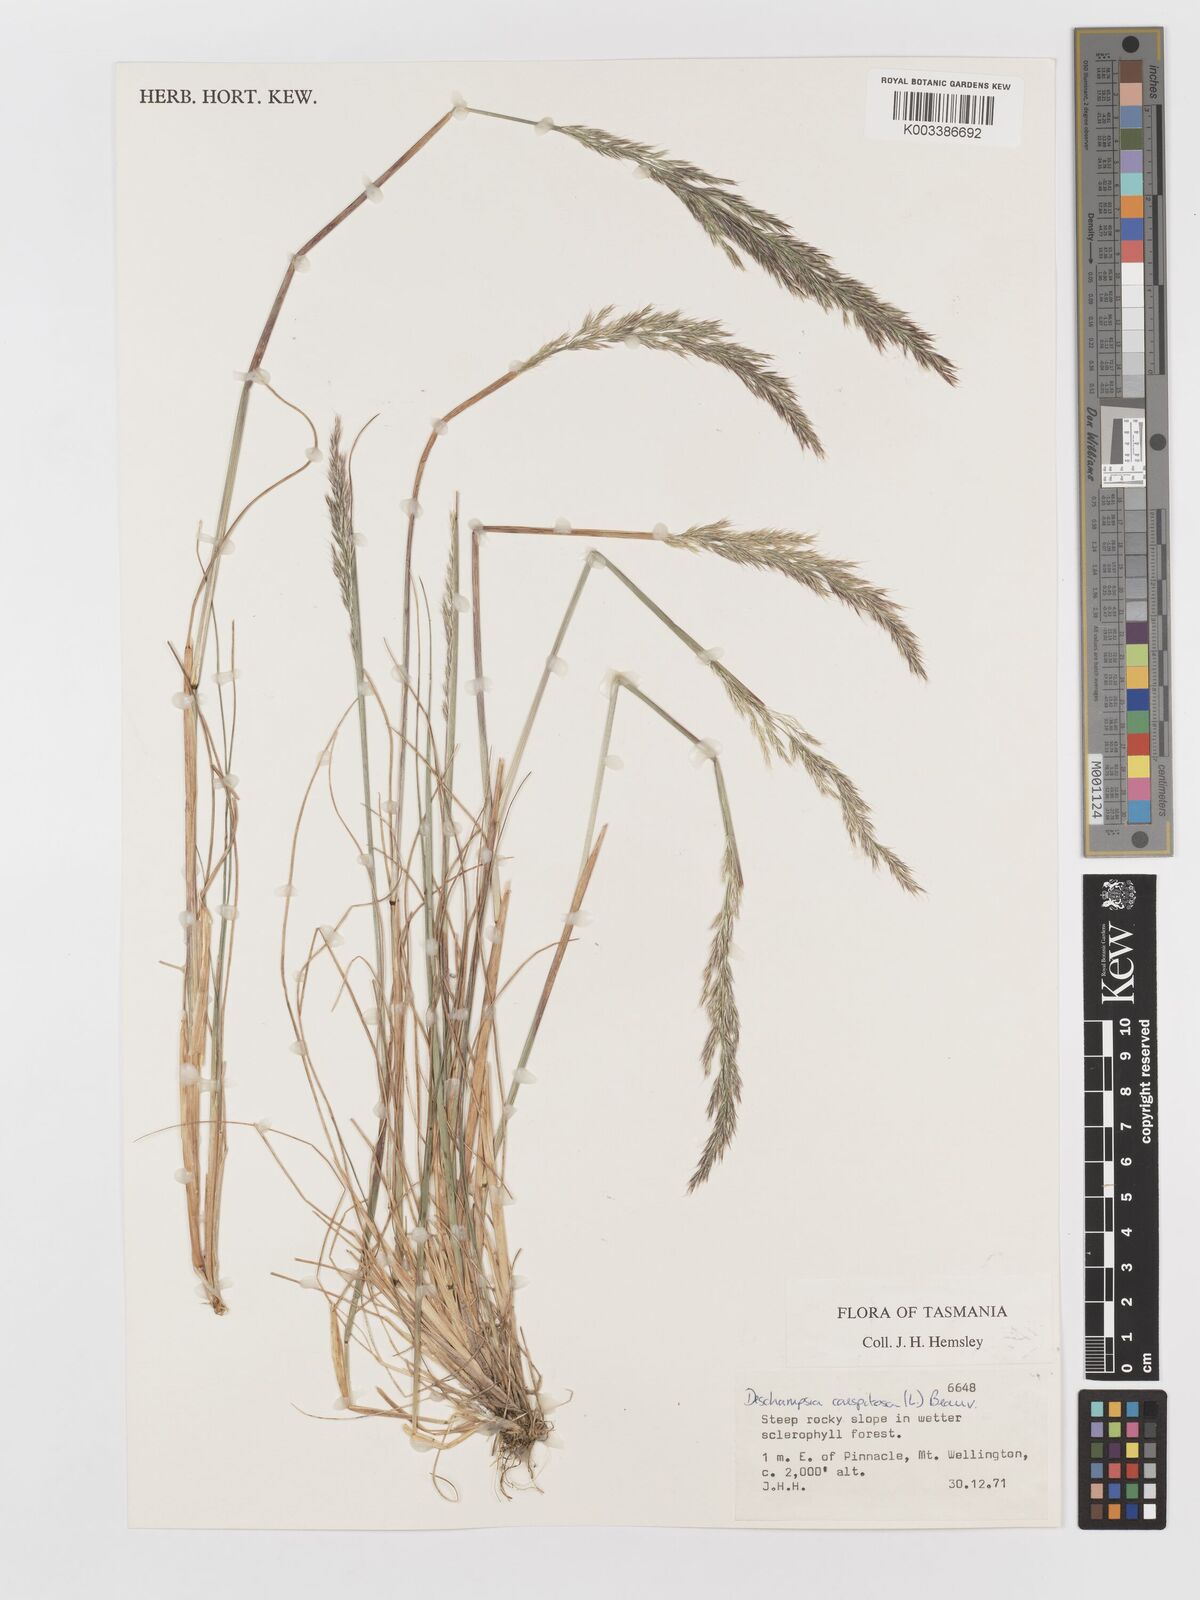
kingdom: Plantae
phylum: Tracheophyta
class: Liliopsida
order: Poales
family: Poaceae
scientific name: Poaceae
